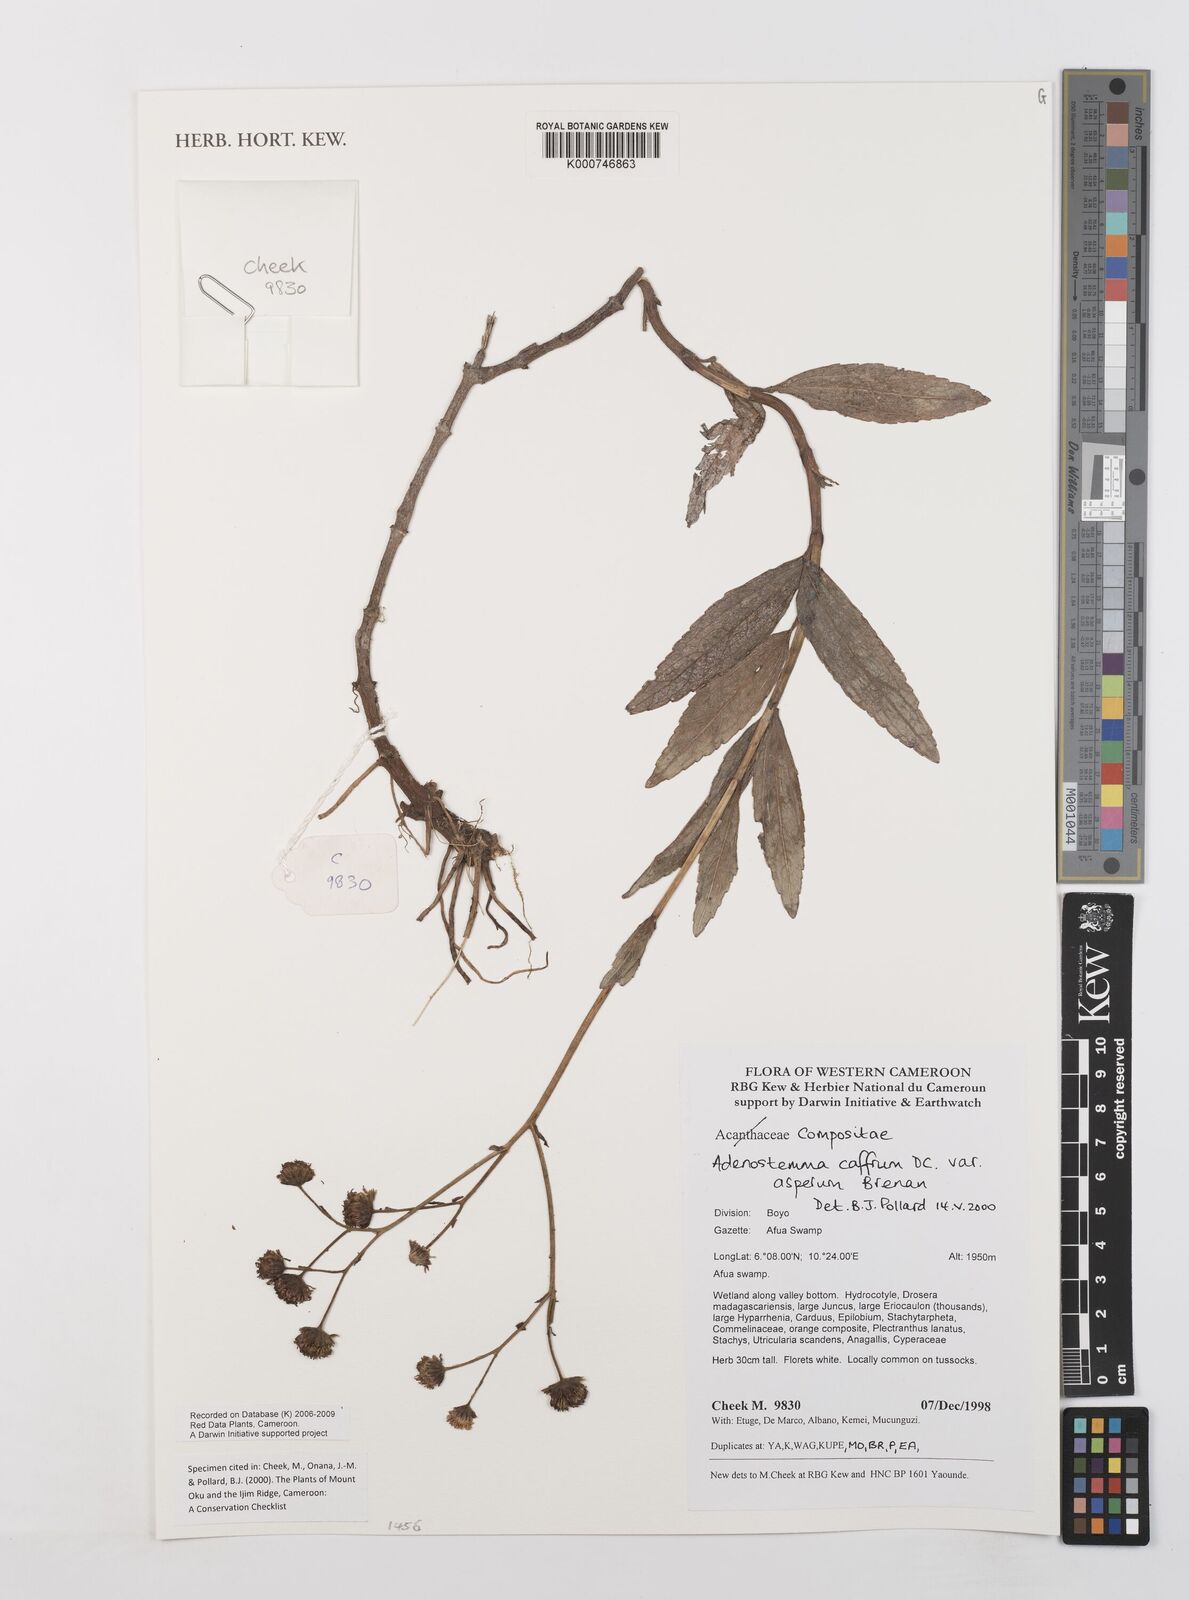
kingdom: Plantae
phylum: Tracheophyta
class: Magnoliopsida
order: Asterales
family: Asteraceae
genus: Adenostemma
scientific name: Adenostemma caffrum
